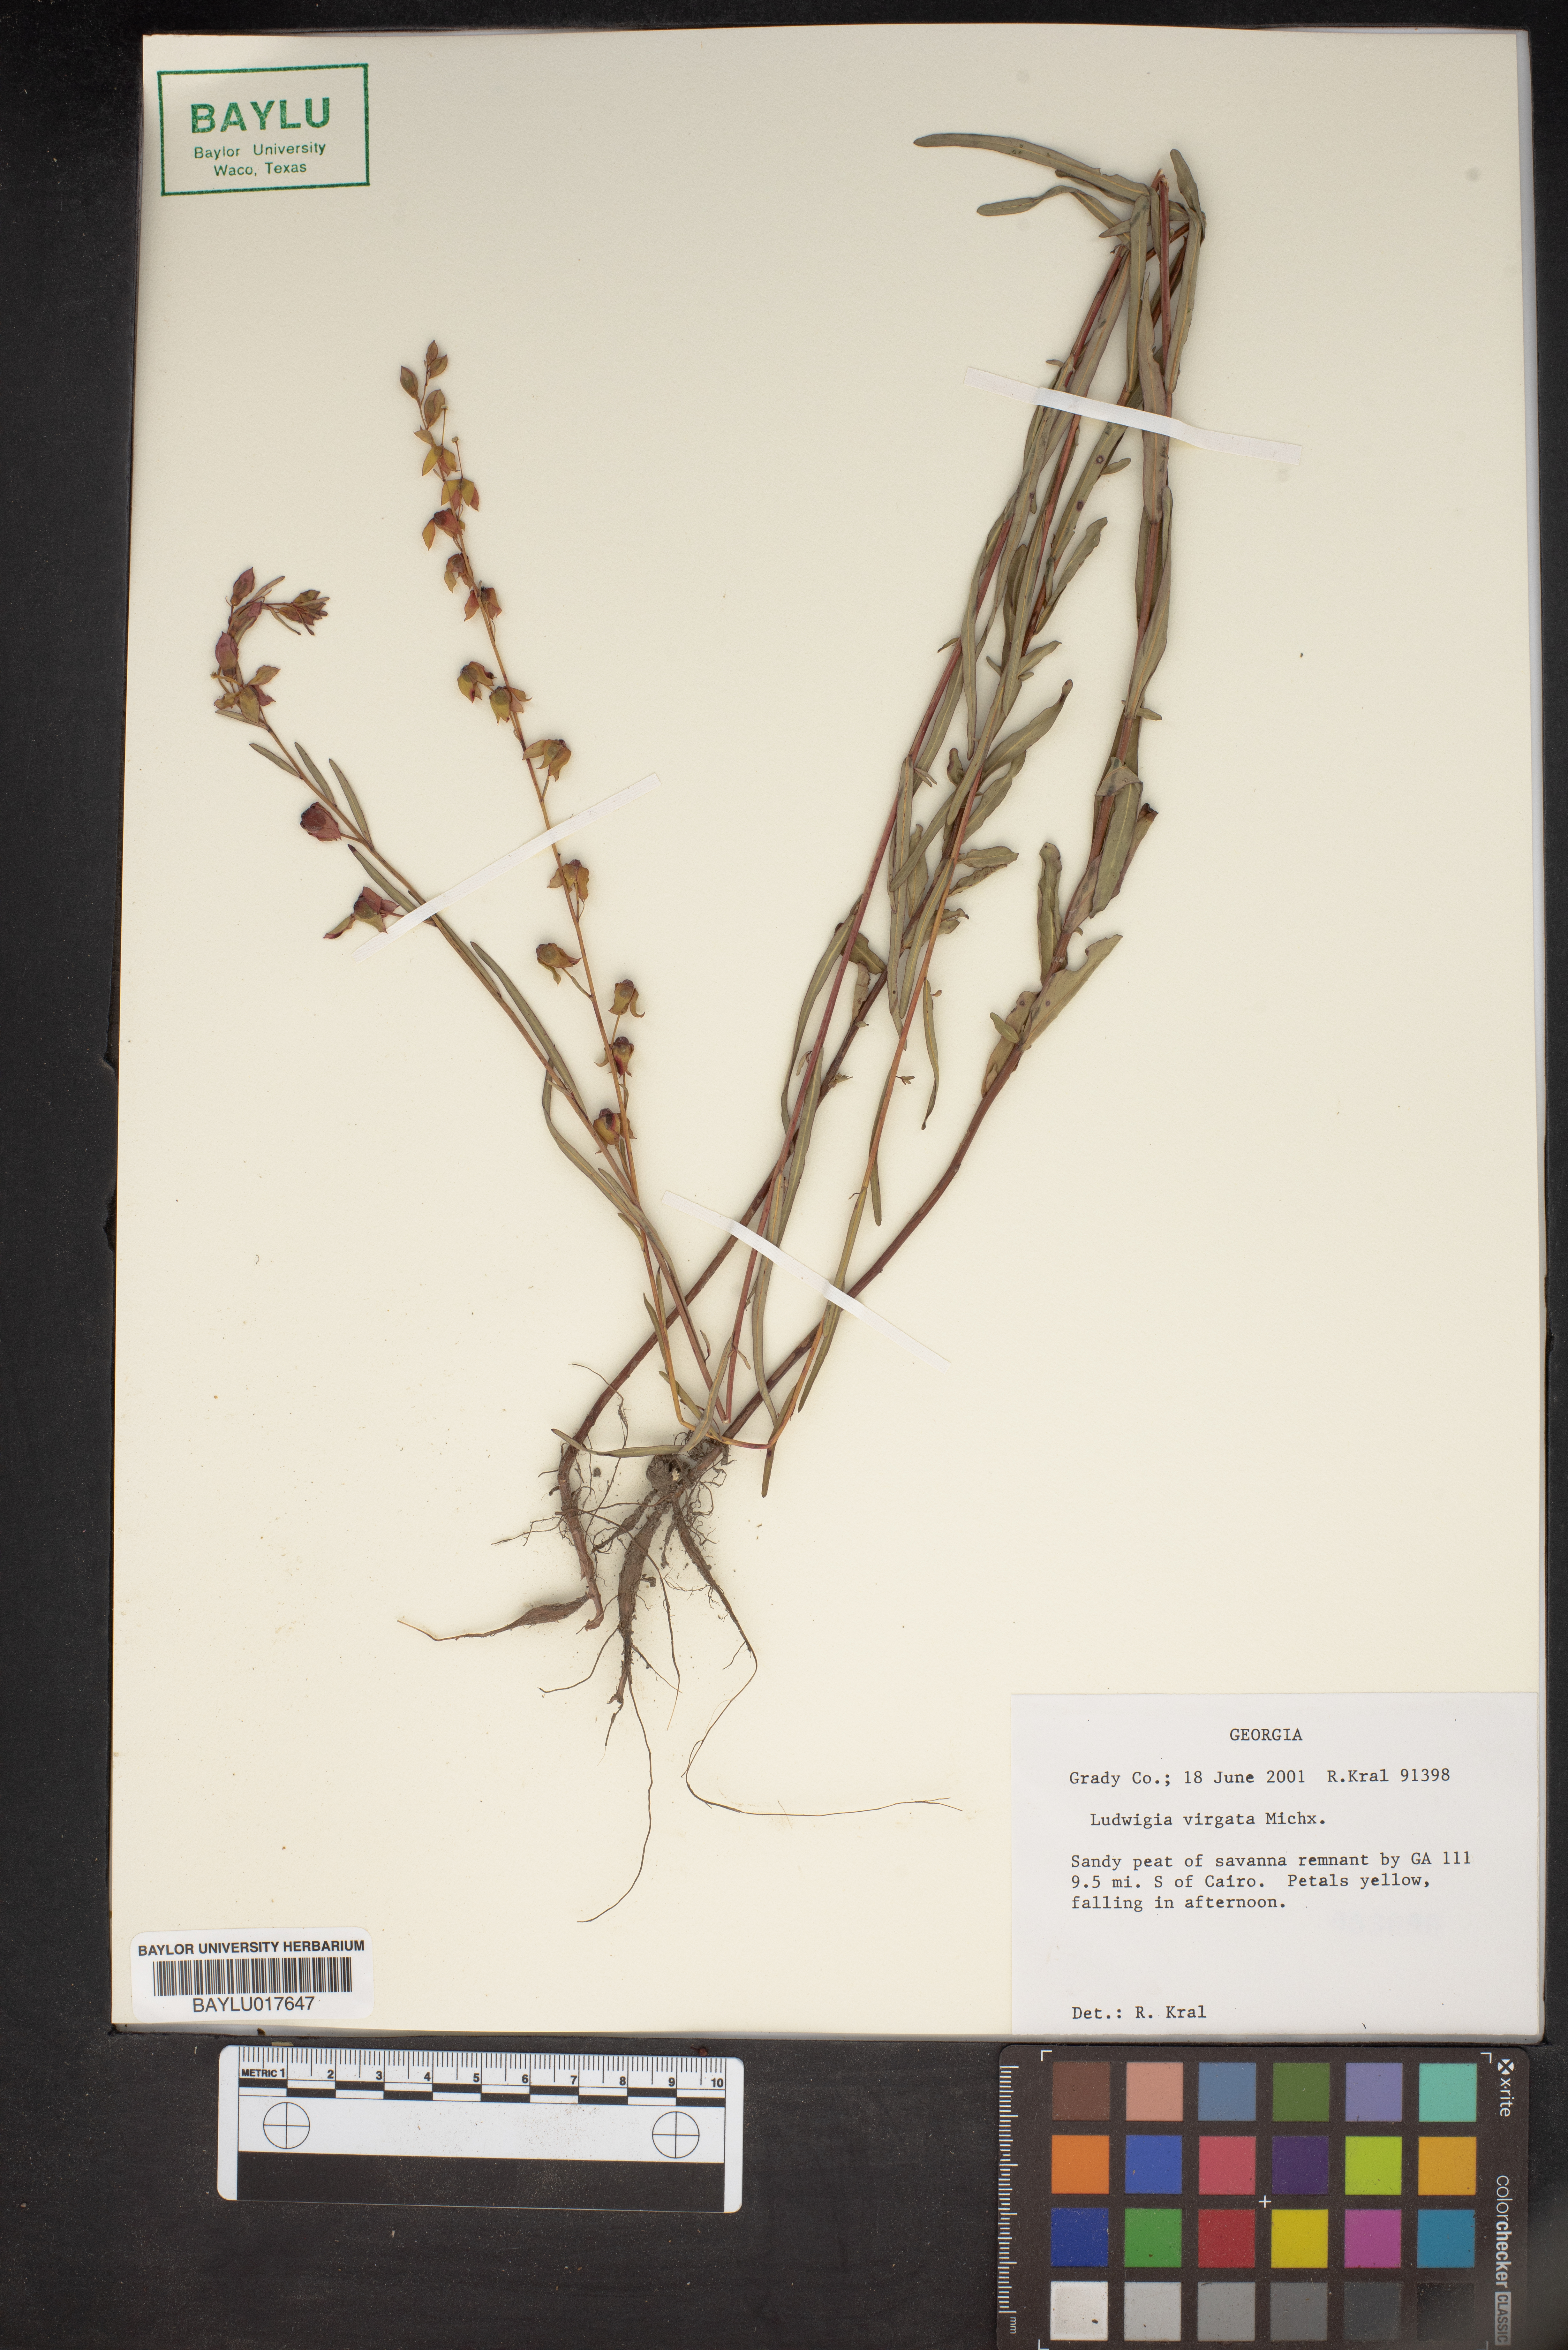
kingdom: Plantae
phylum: Tracheophyta
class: Magnoliopsida
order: Myrtales
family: Onagraceae
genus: Ludwigia
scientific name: Ludwigia virgata
